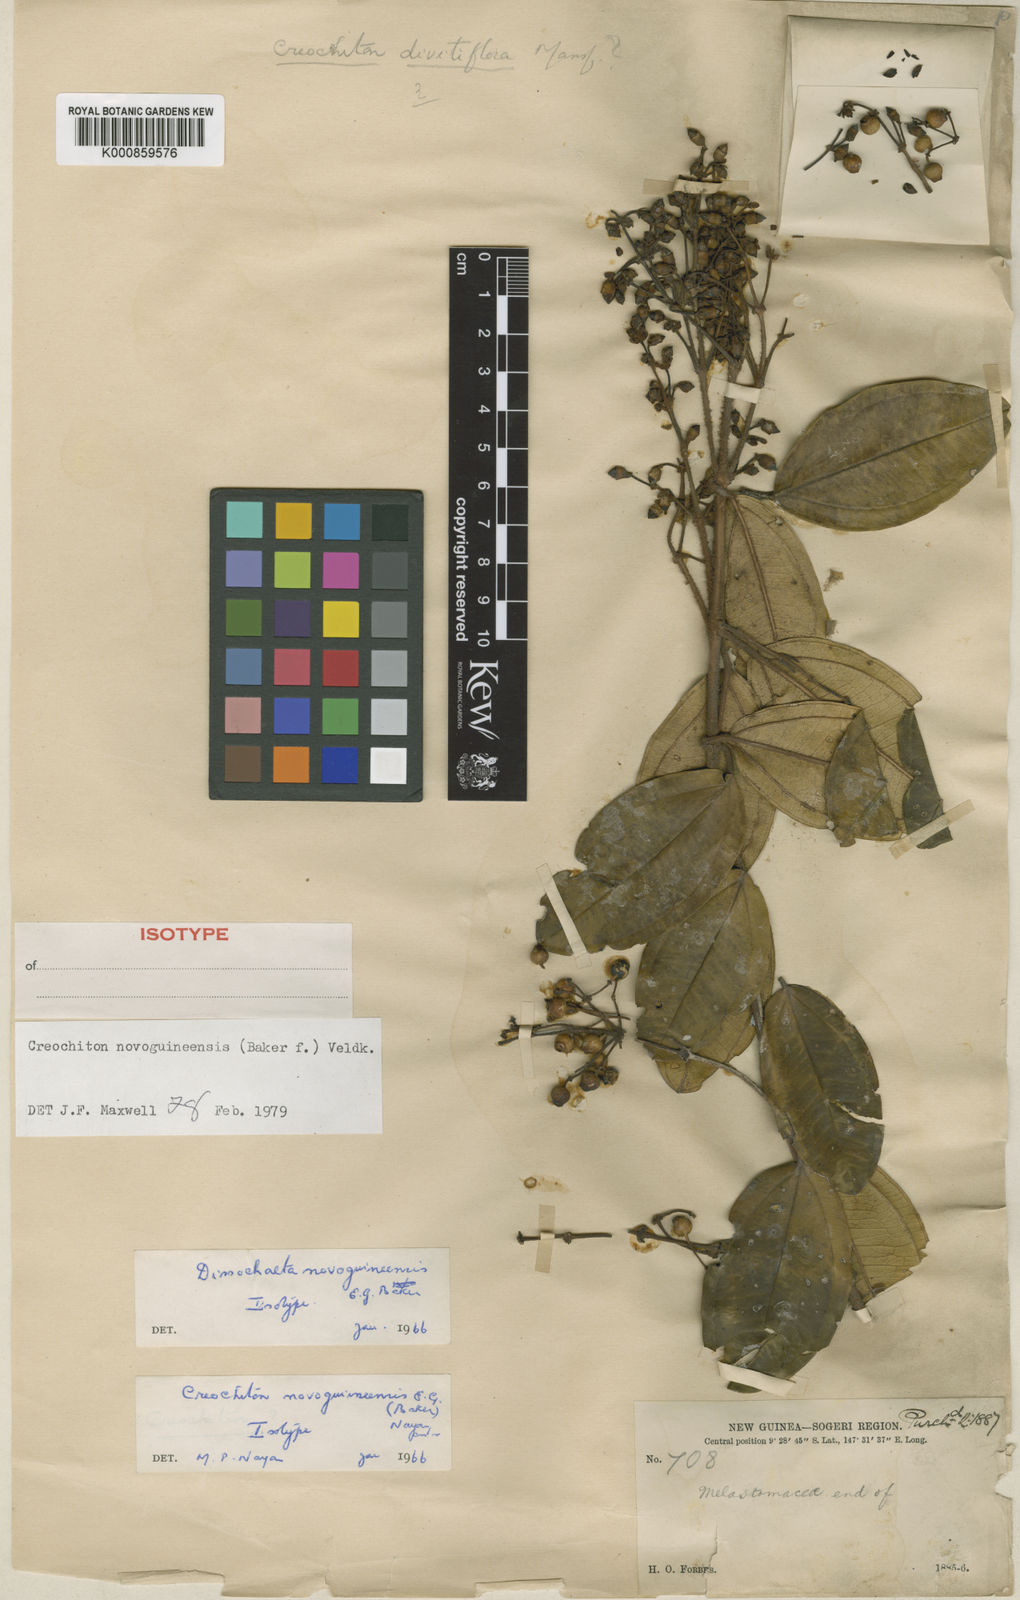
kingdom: Plantae
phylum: Tracheophyta
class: Magnoliopsida
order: Myrtales
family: Melastomataceae
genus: Creochiton
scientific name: Creochiton novoguineensis
